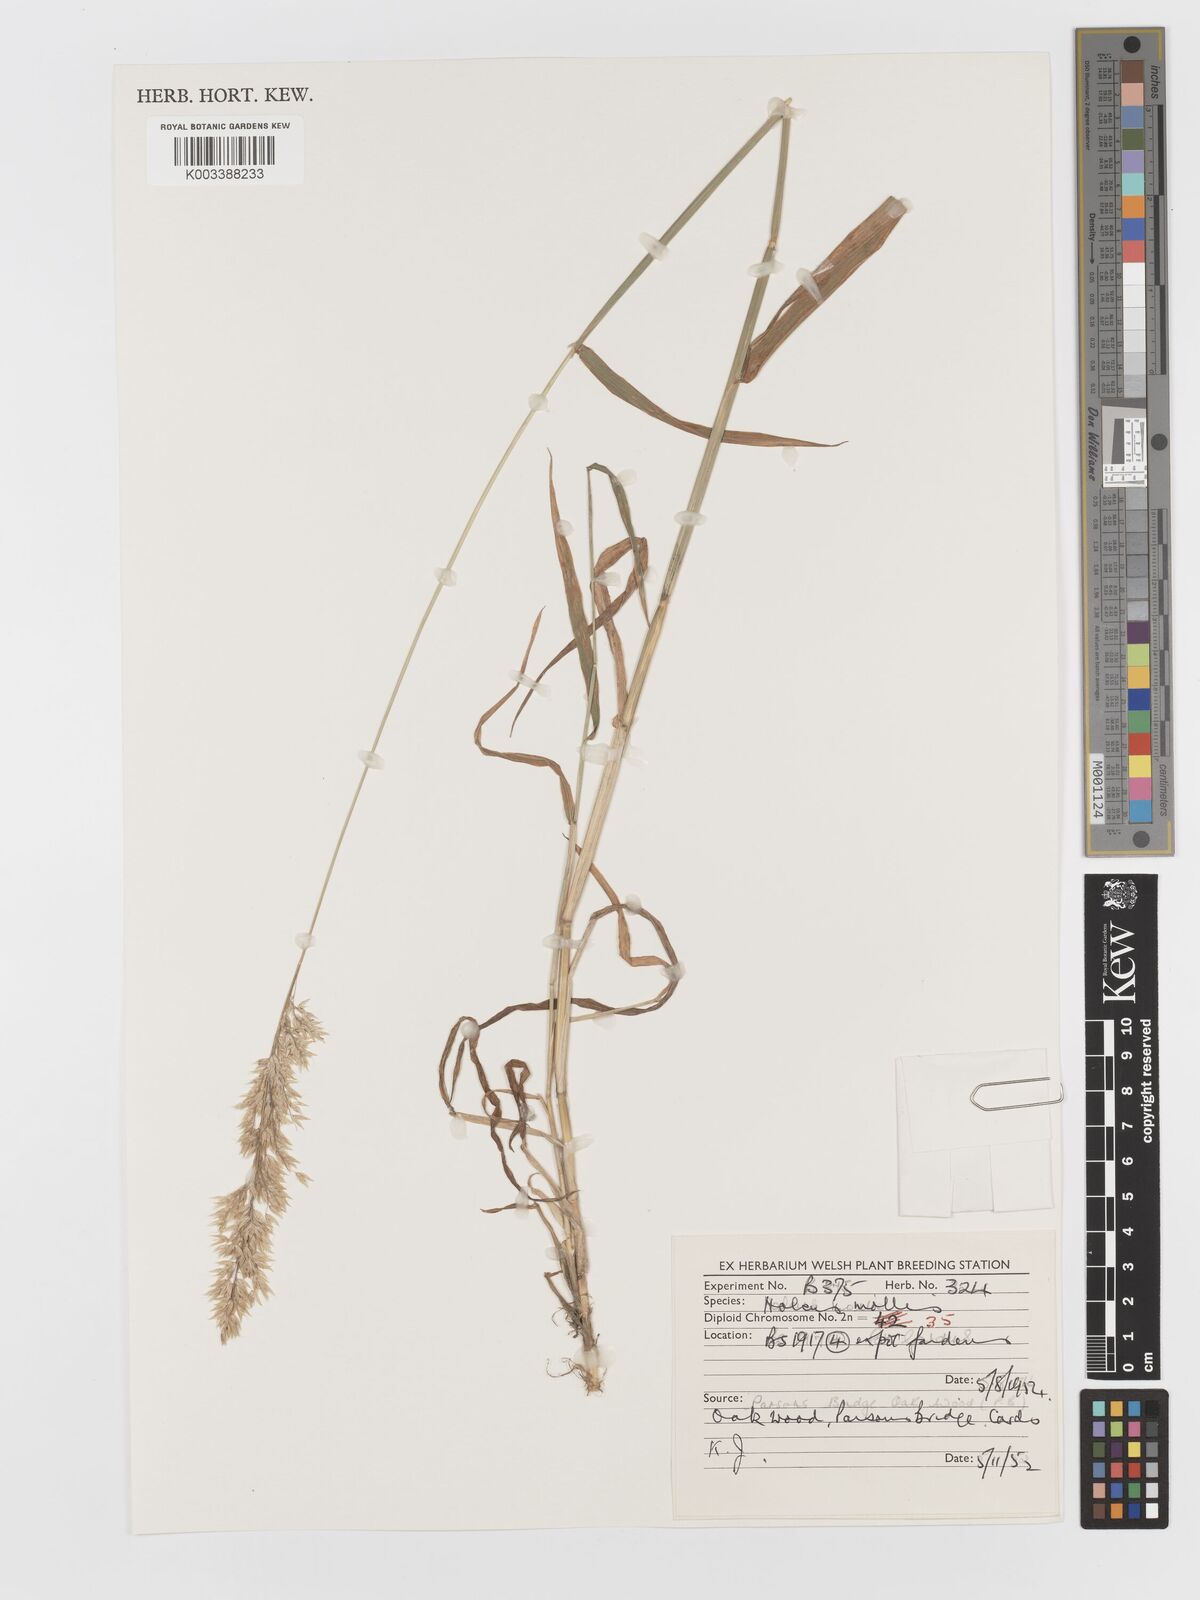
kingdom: Plantae
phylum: Tracheophyta
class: Liliopsida
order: Poales
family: Poaceae
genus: Holcus
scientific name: Holcus hierrensis
